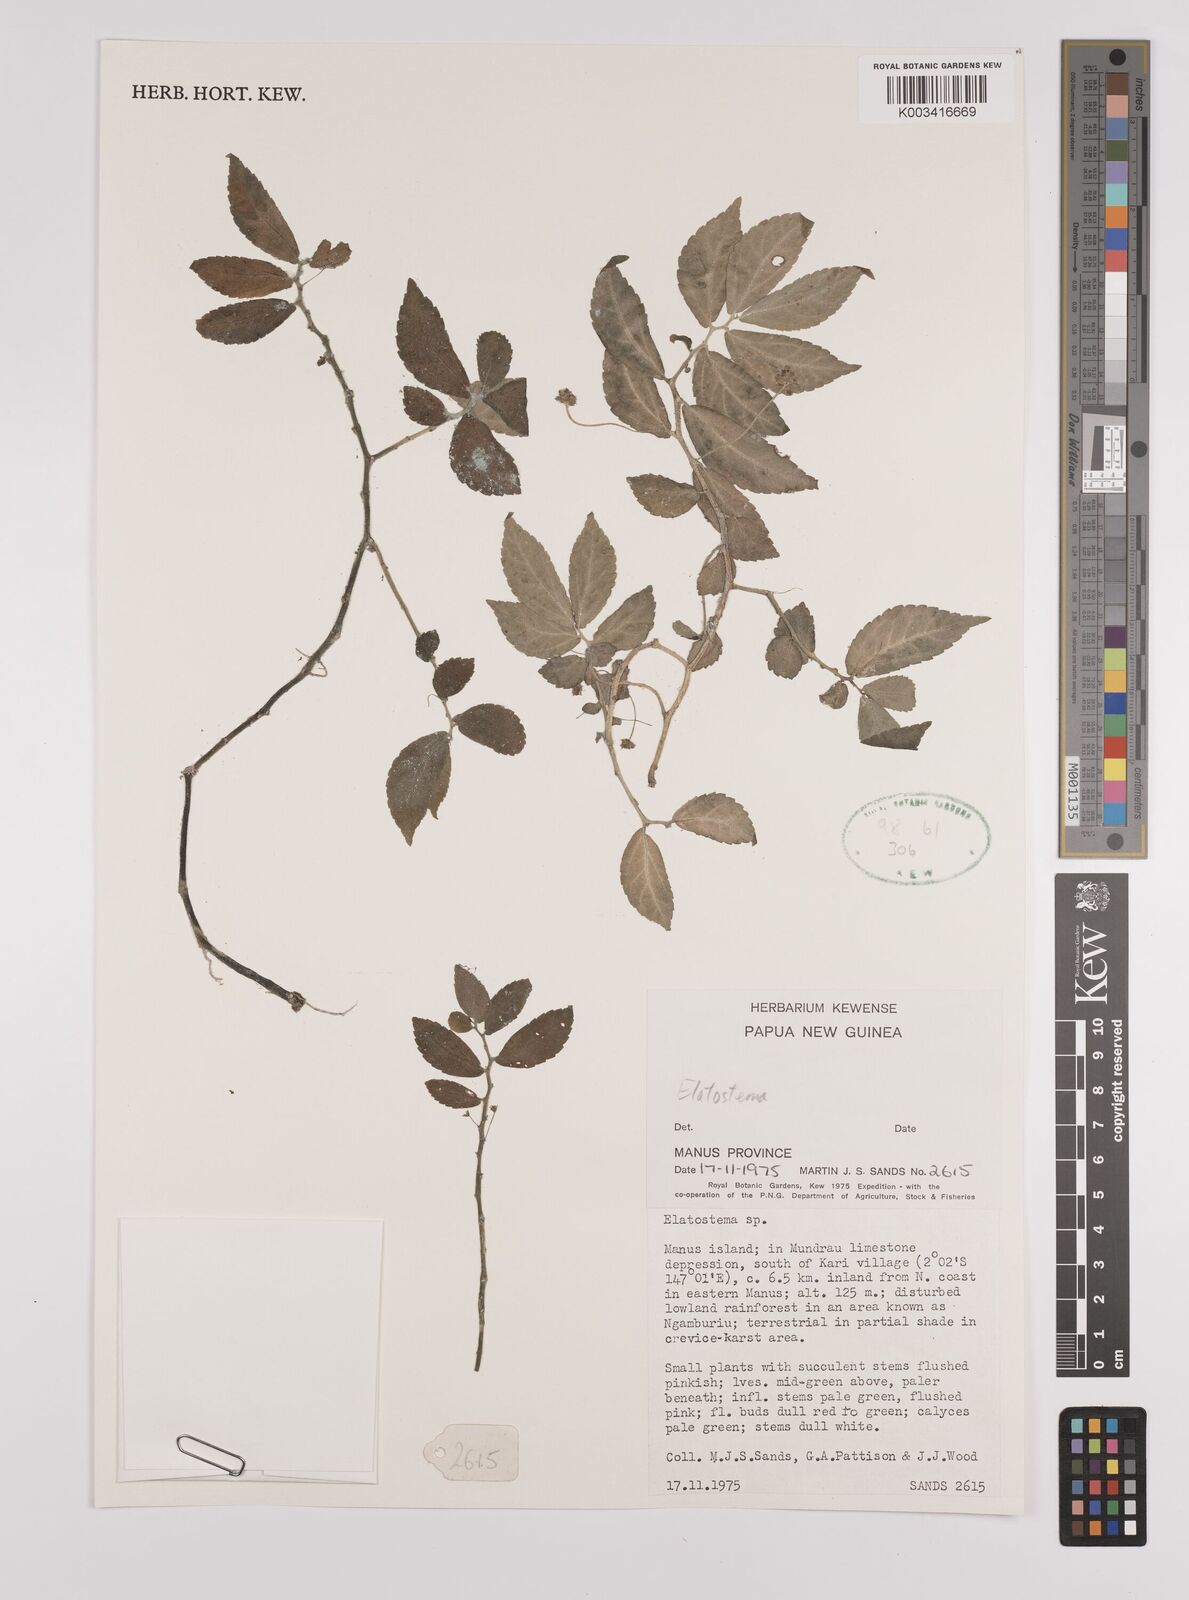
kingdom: Plantae
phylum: Tracheophyta
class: Magnoliopsida
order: Rosales
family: Urticaceae
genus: Elatostema
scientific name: Elatostema
